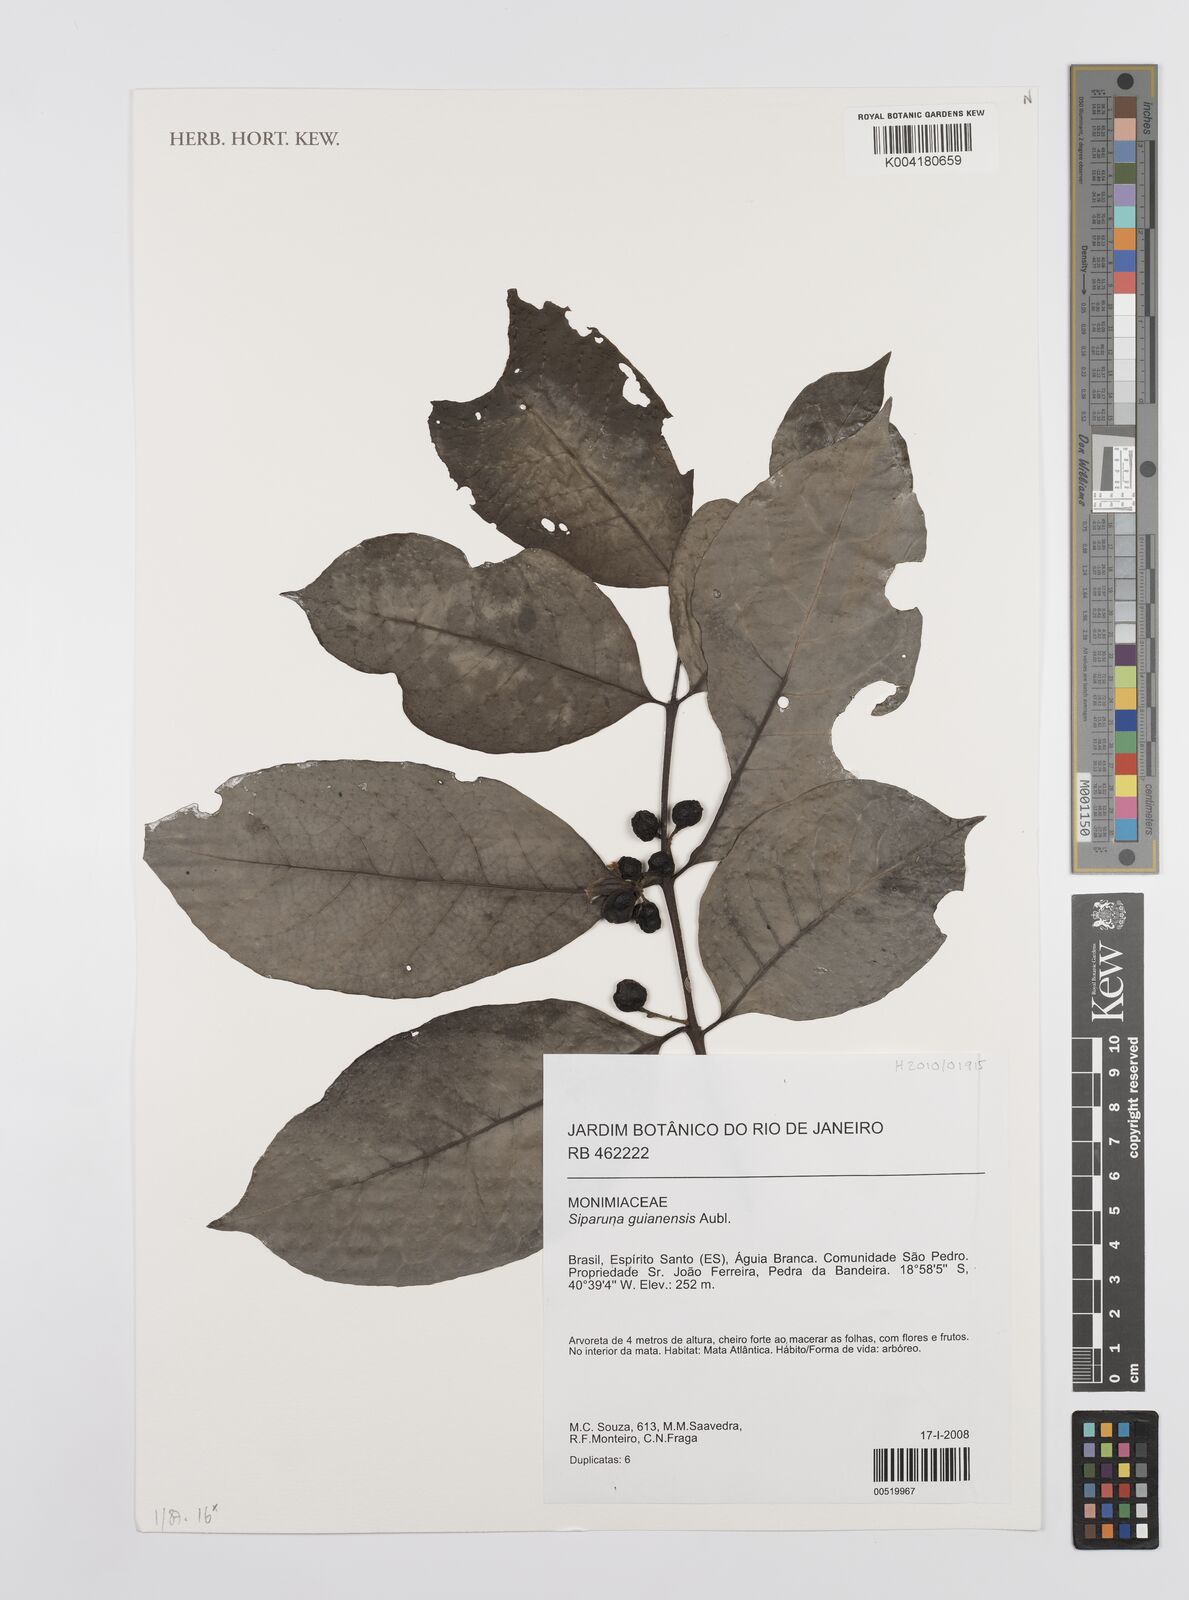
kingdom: Plantae
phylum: Tracheophyta
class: Magnoliopsida
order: Laurales
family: Siparunaceae
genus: Siparuna
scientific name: Siparuna guianensis
